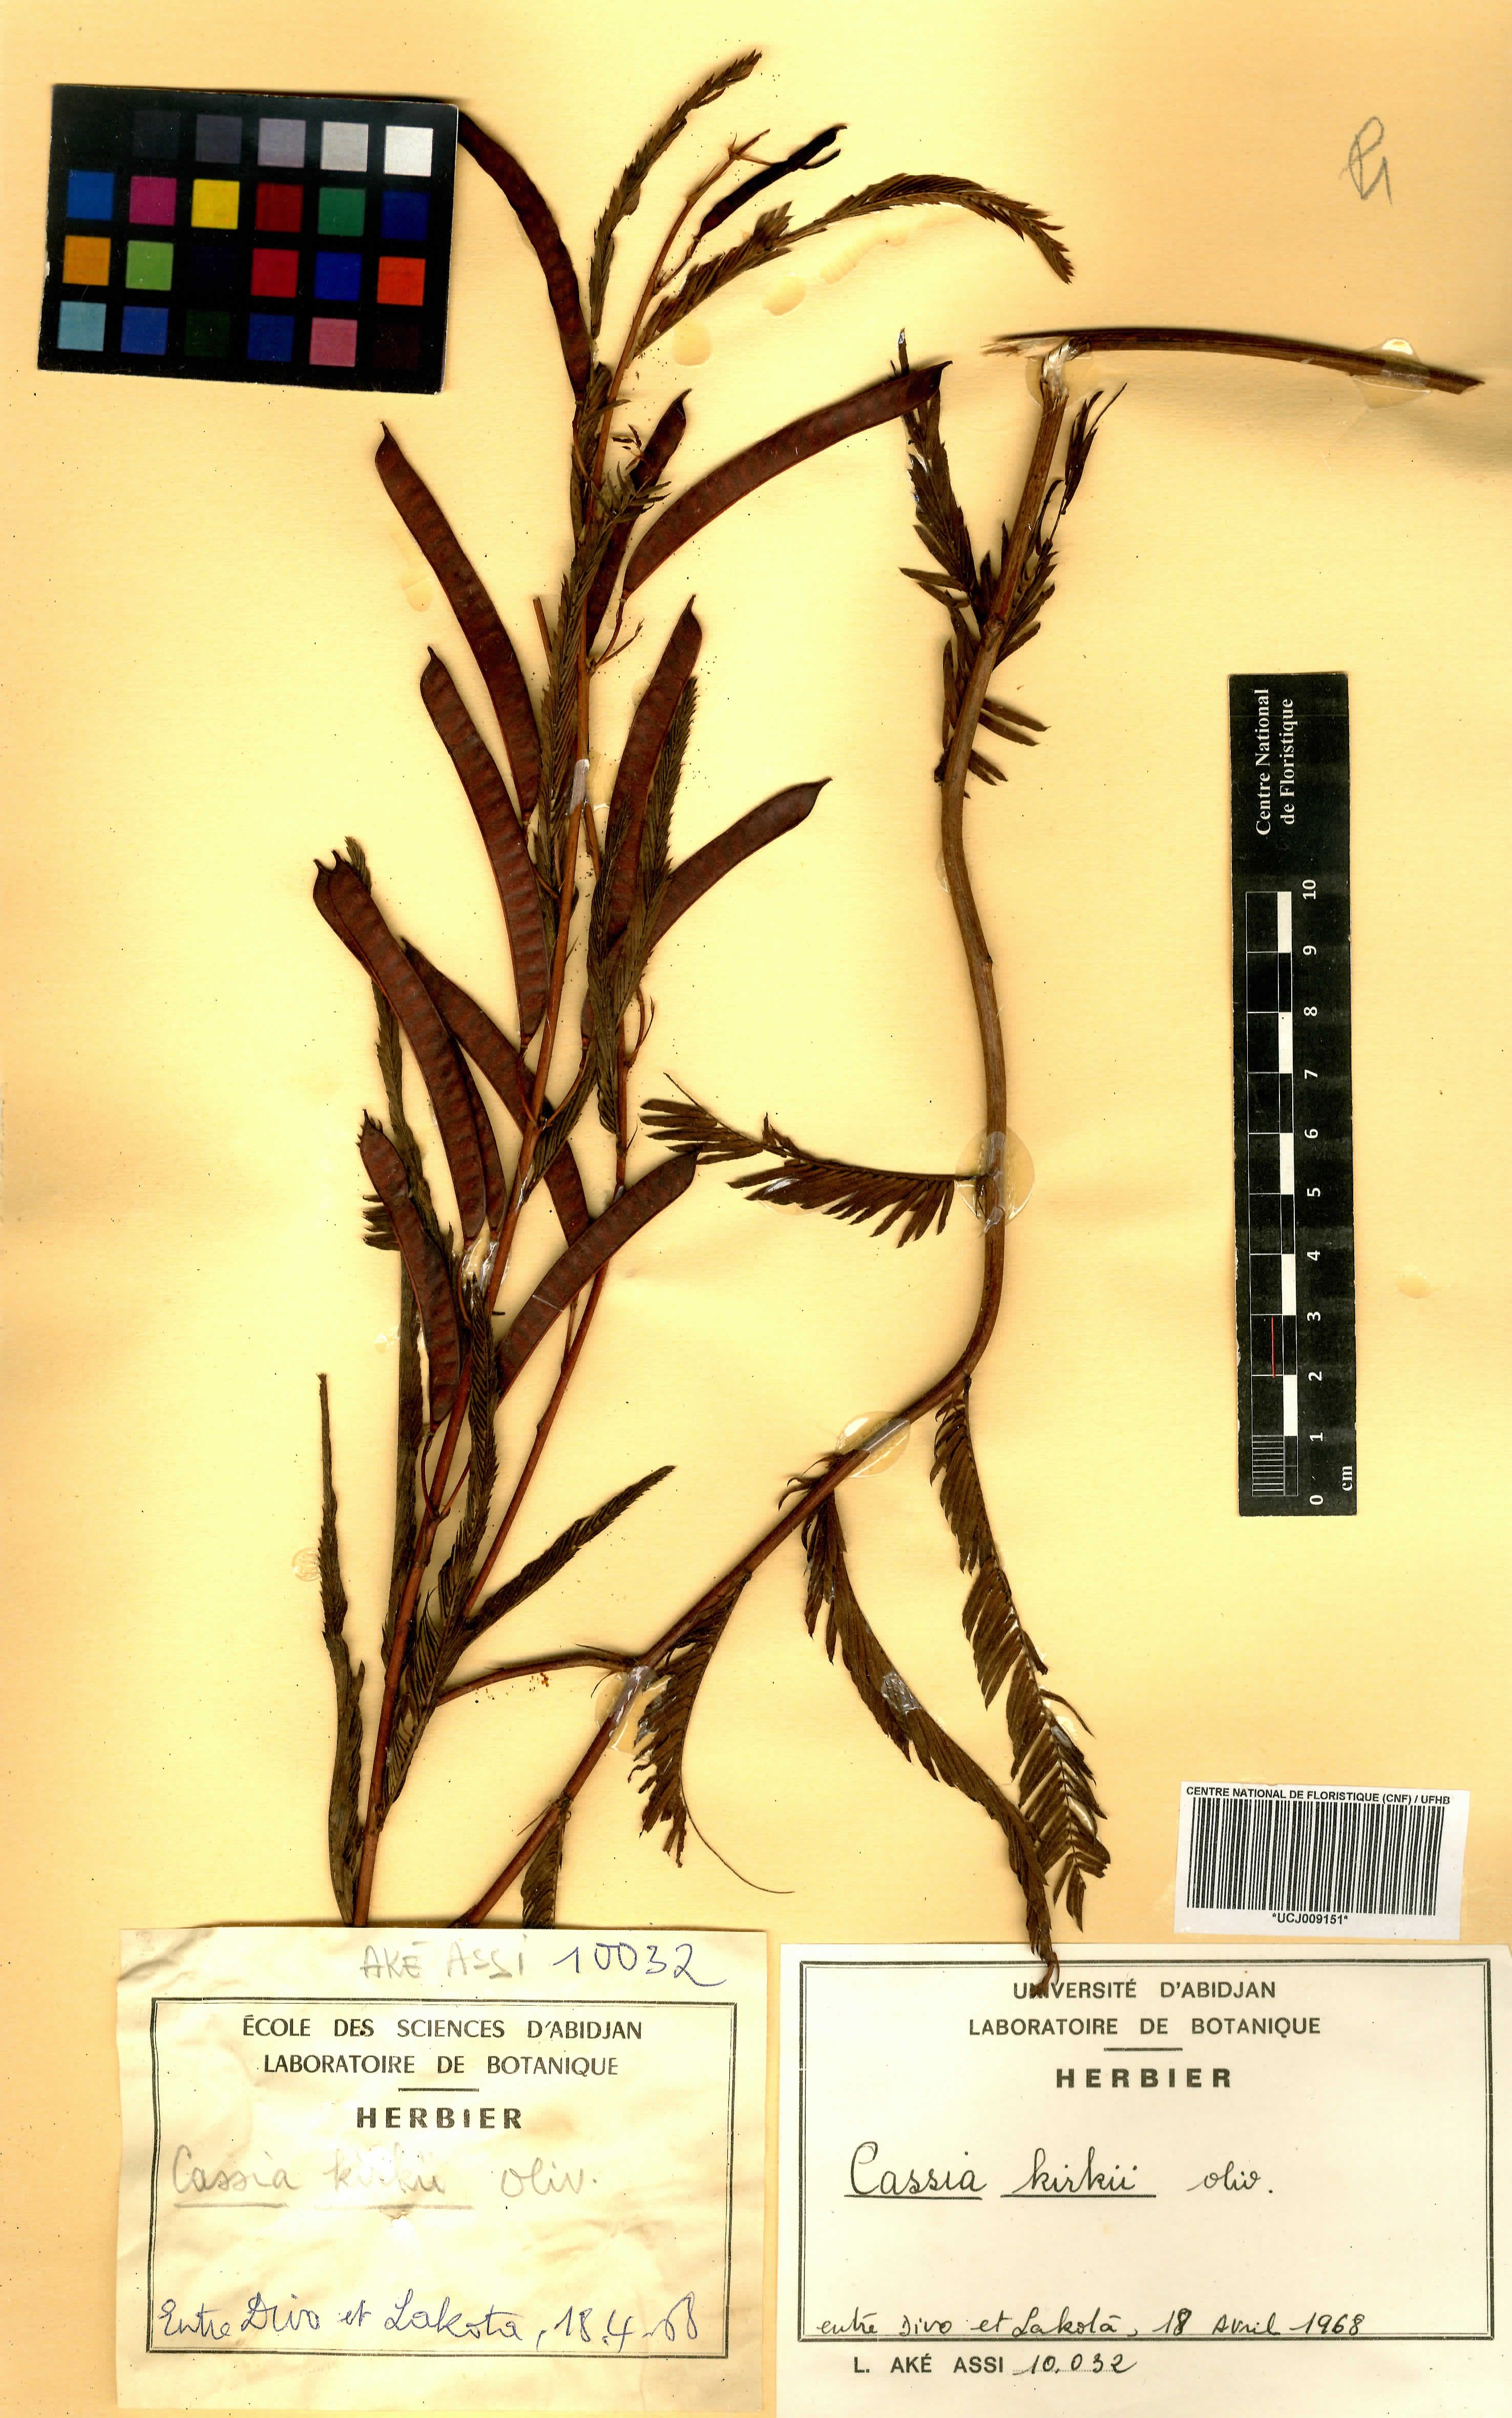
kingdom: Plantae
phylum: Tracheophyta
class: Magnoliopsida
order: Fabales
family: Fabaceae
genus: Chamaecrista
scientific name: Chamaecrista kirkii
